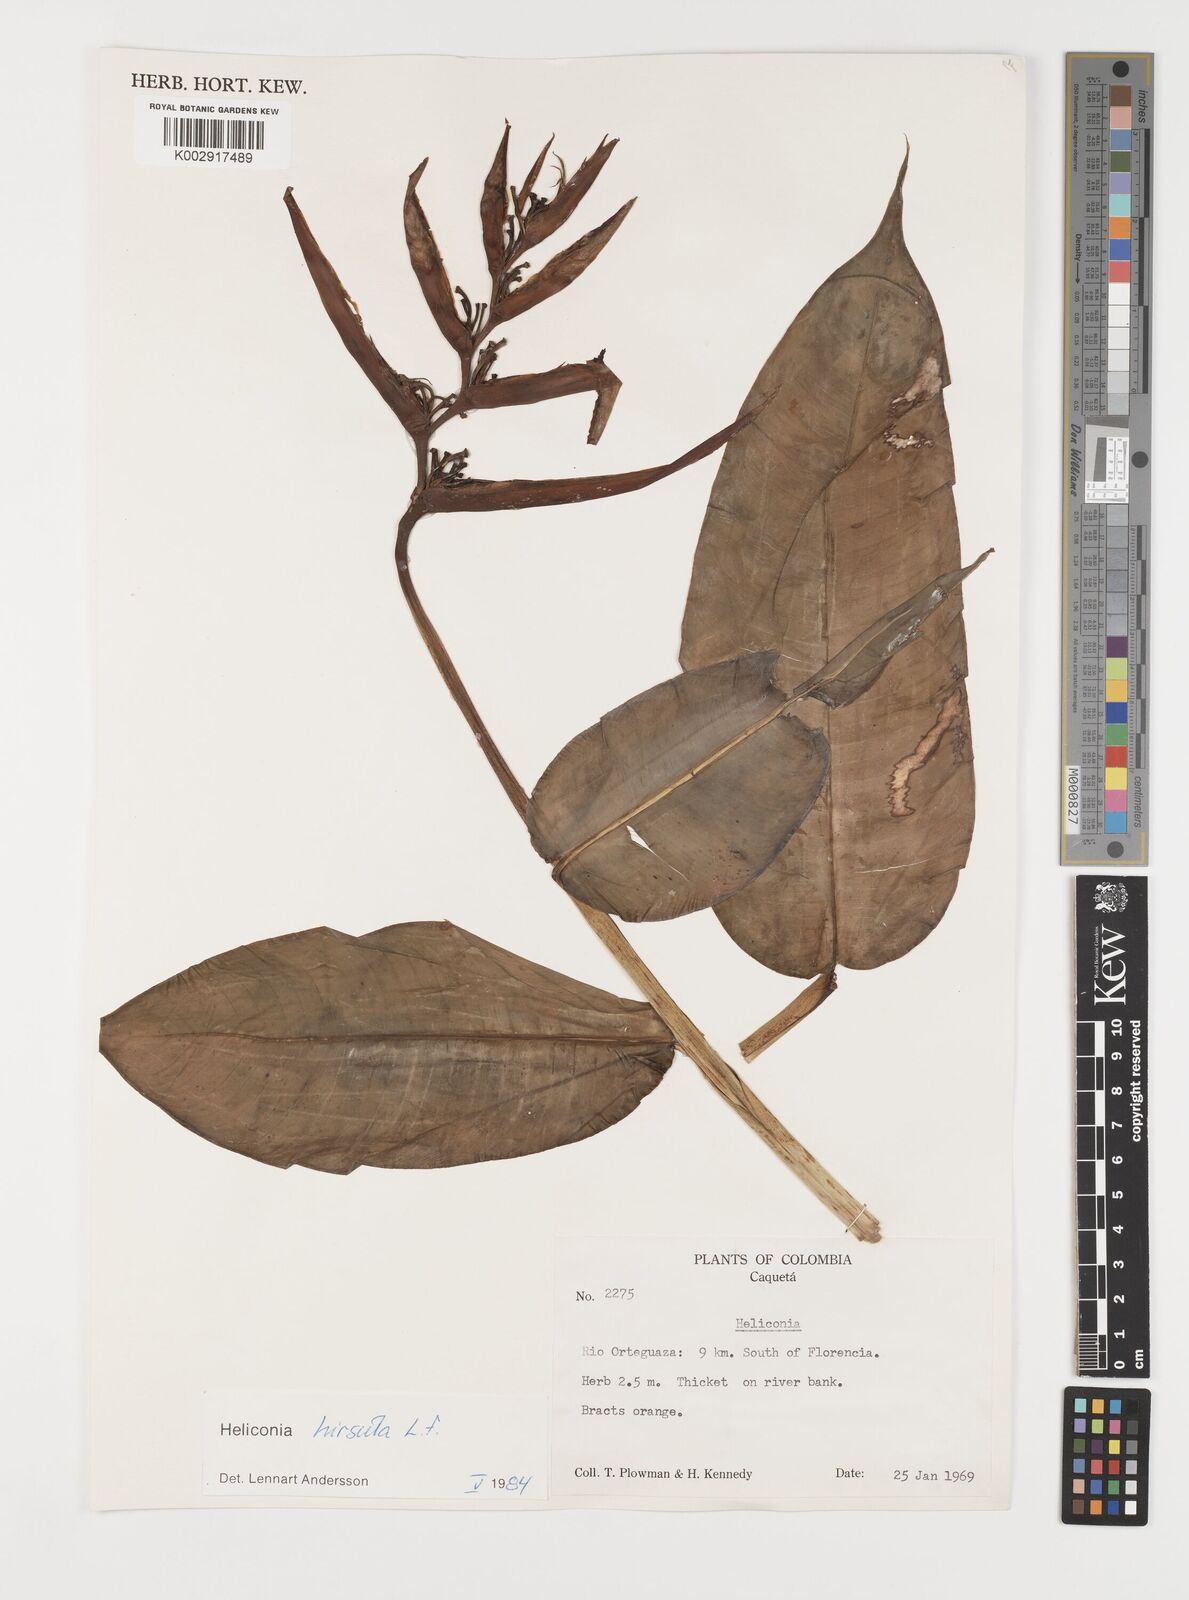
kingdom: Plantae
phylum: Tracheophyta
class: Liliopsida
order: Zingiberales
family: Heliconiaceae
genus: Heliconia
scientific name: Heliconia schiedeana
